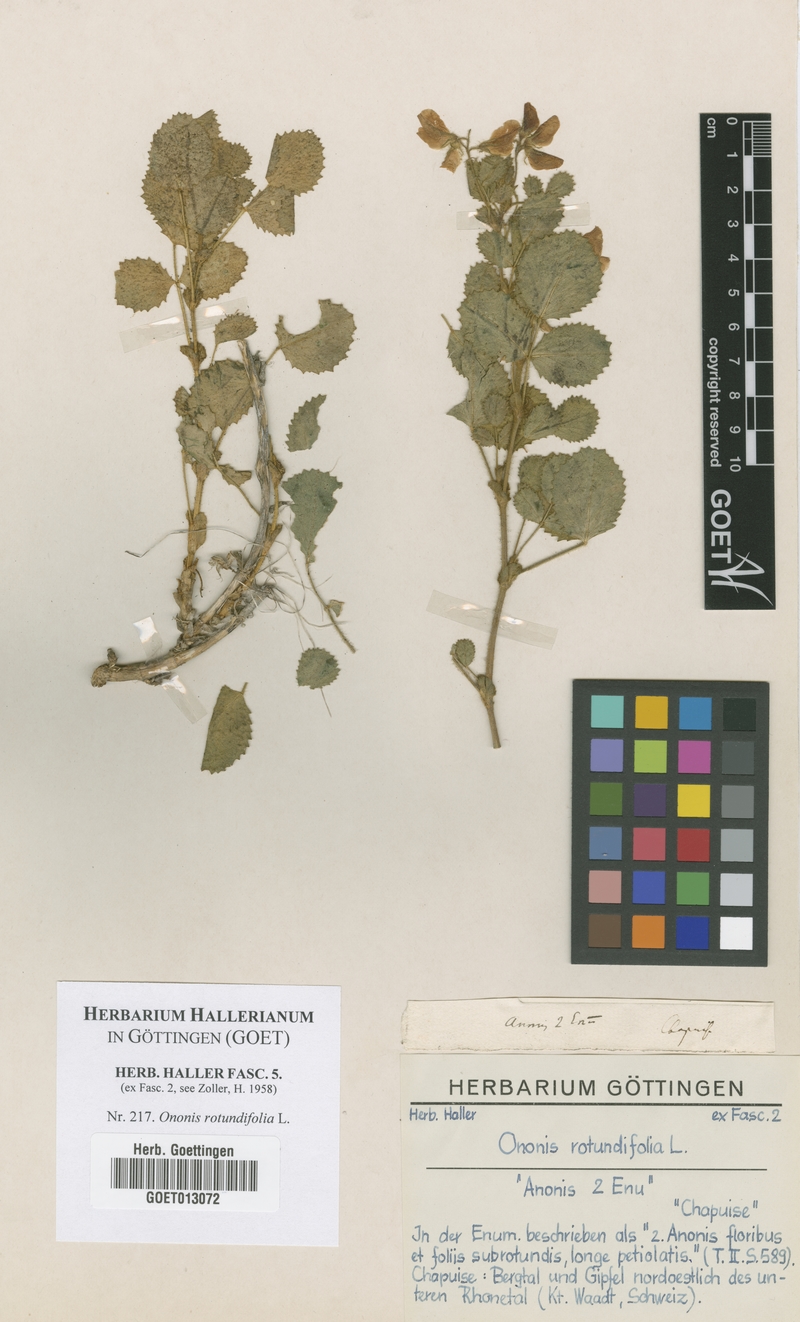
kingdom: Plantae
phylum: Tracheophyta
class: Magnoliopsida
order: Fabales
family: Fabaceae
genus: Ononis
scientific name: Ononis rotundifolia
